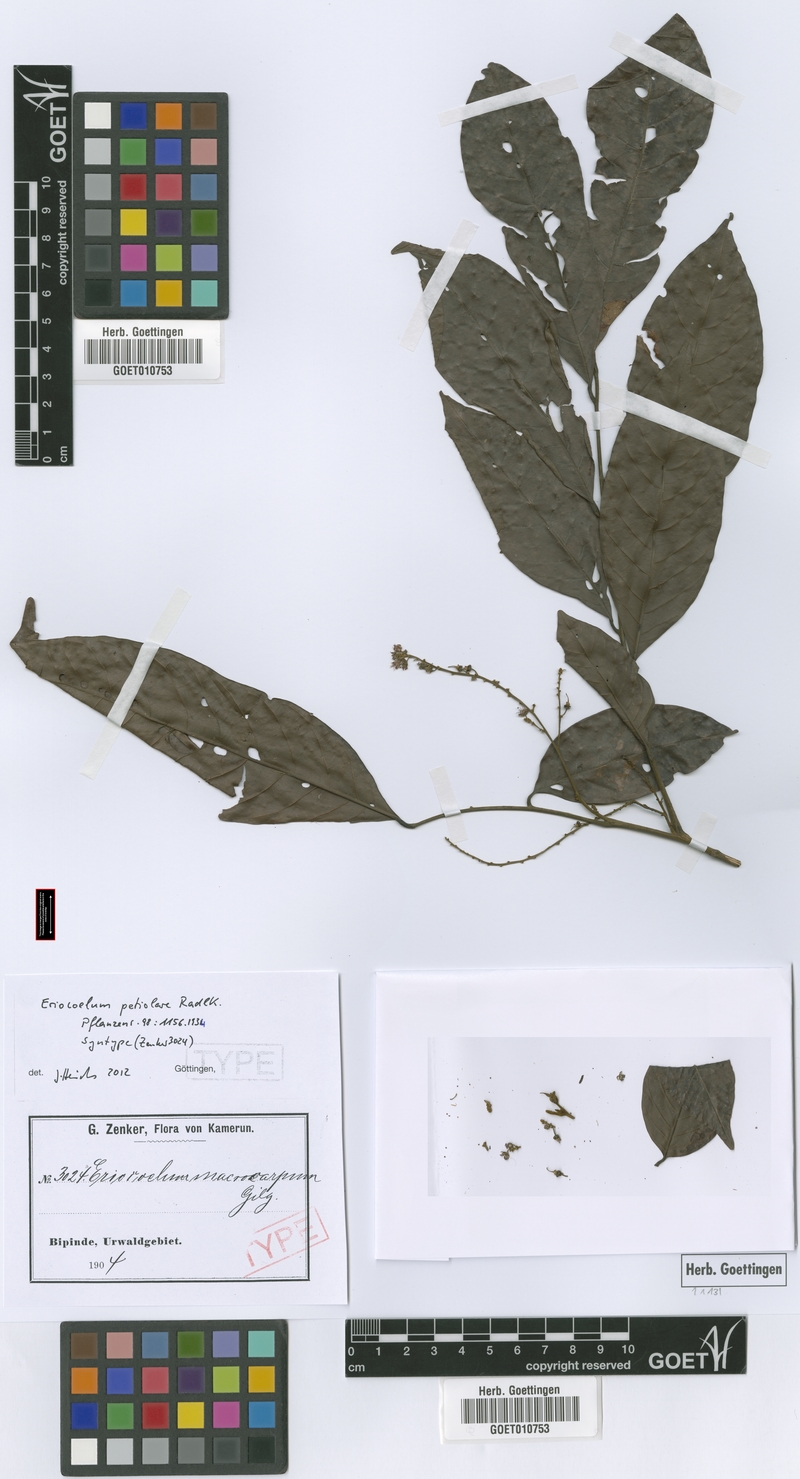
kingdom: Plantae
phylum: Tracheophyta
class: Magnoliopsida
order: Sapindales
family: Sapindaceae
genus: Eriocoelum
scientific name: Eriocoelum petiolare
